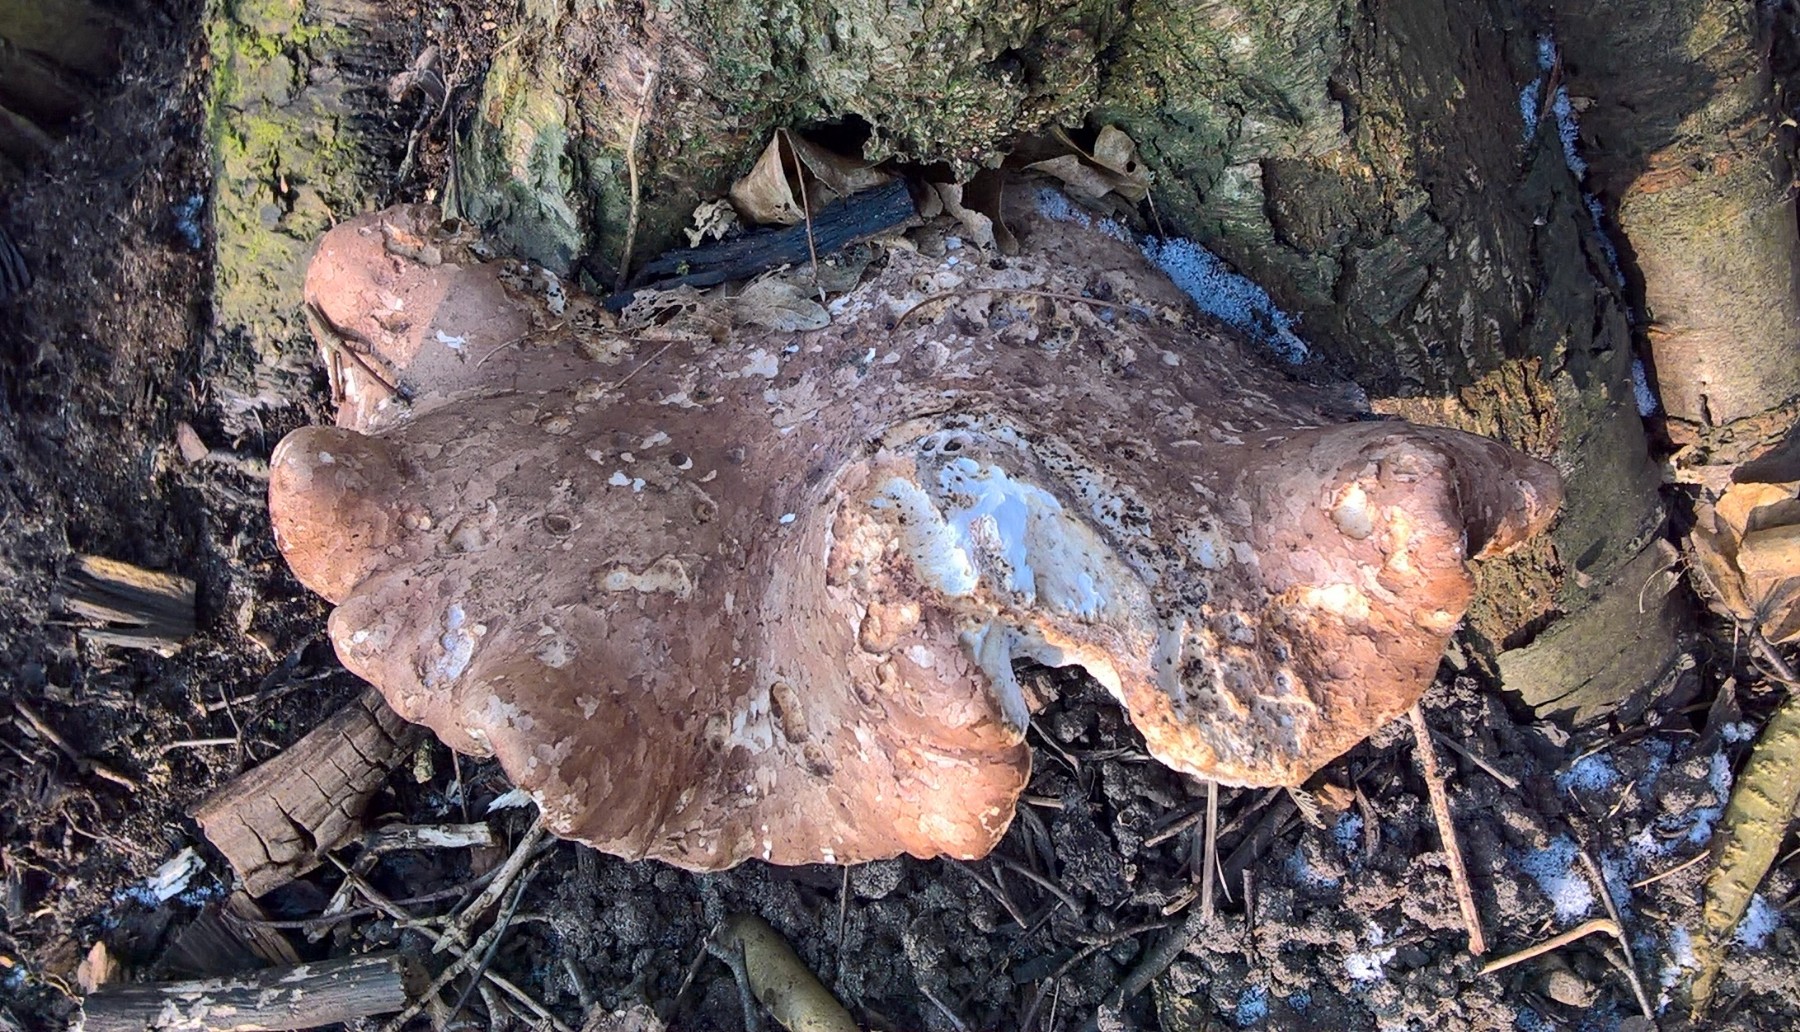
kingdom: Fungi
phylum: Basidiomycota
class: Agaricomycetes
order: Polyporales
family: Fomitopsidaceae
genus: Fomitopsis
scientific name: Fomitopsis betulina
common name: birkeporesvamp
